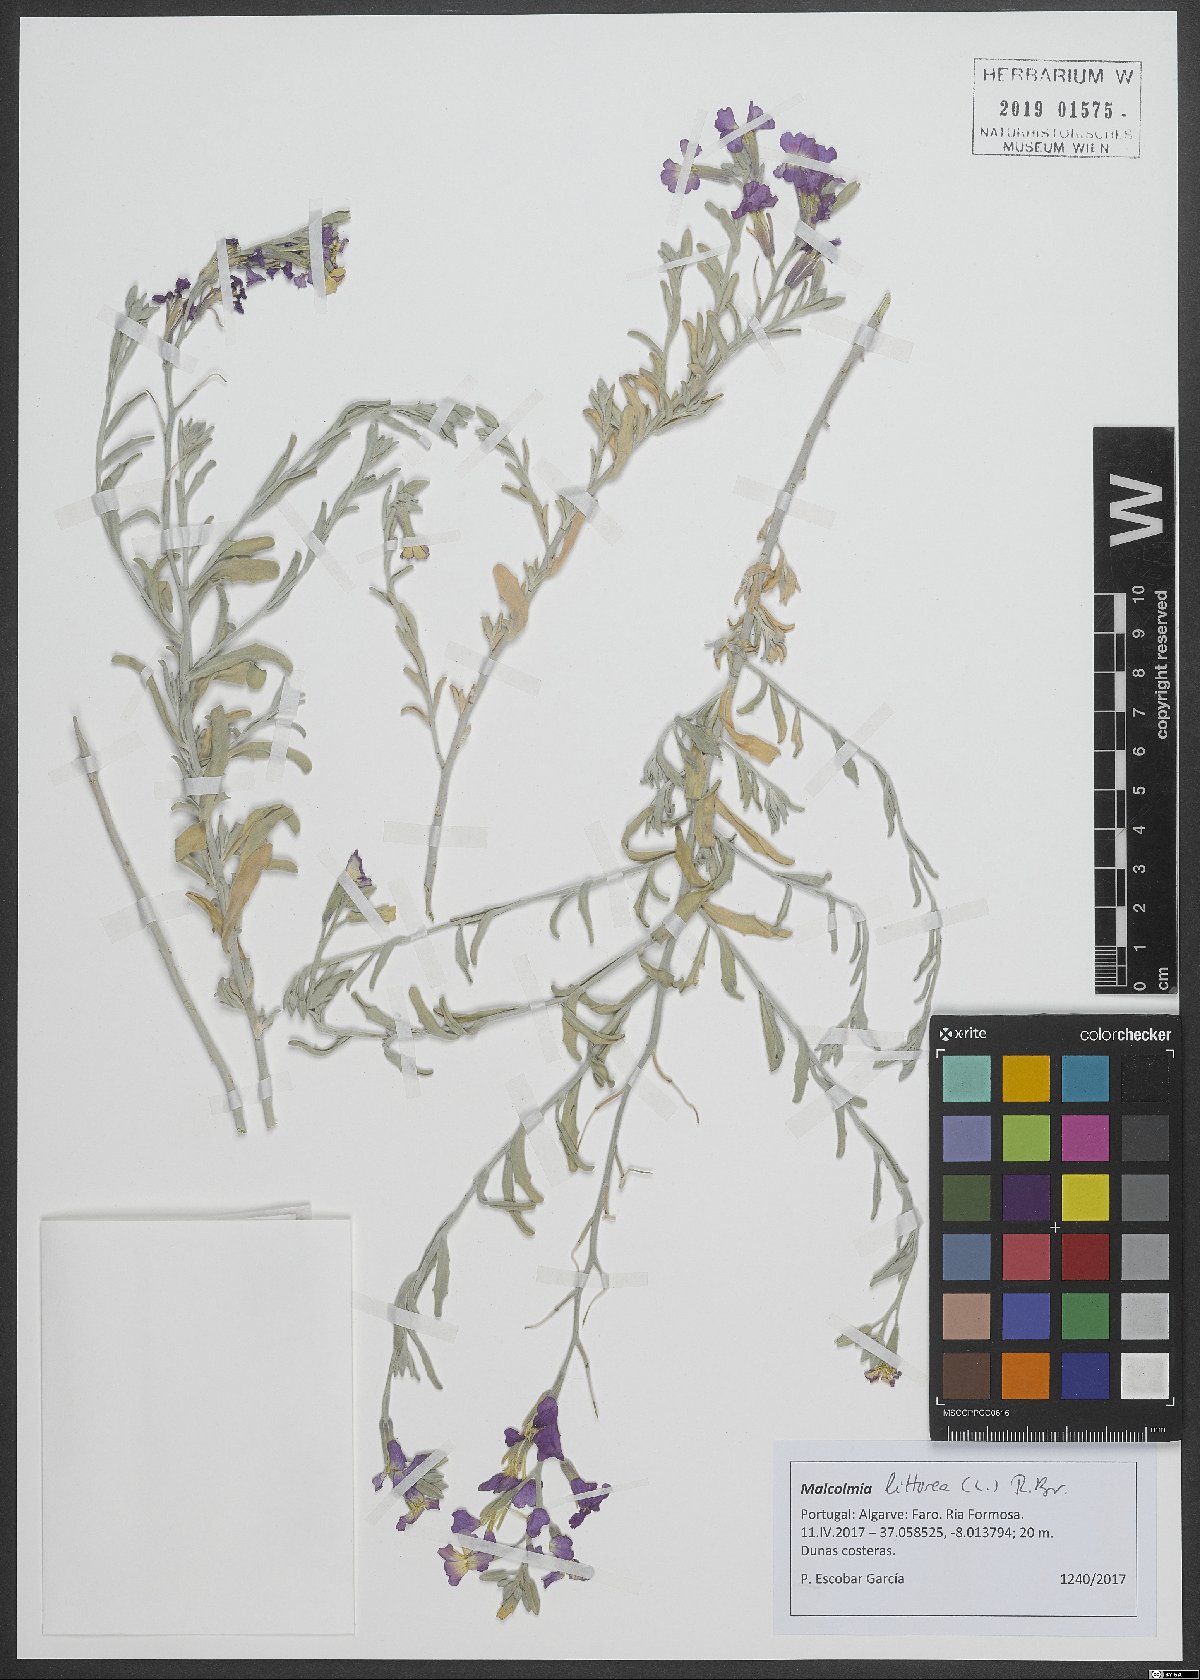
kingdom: Plantae
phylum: Tracheophyta
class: Magnoliopsida
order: Brassicales
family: Brassicaceae
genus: Marcuskochia
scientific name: Marcuskochia littorea
